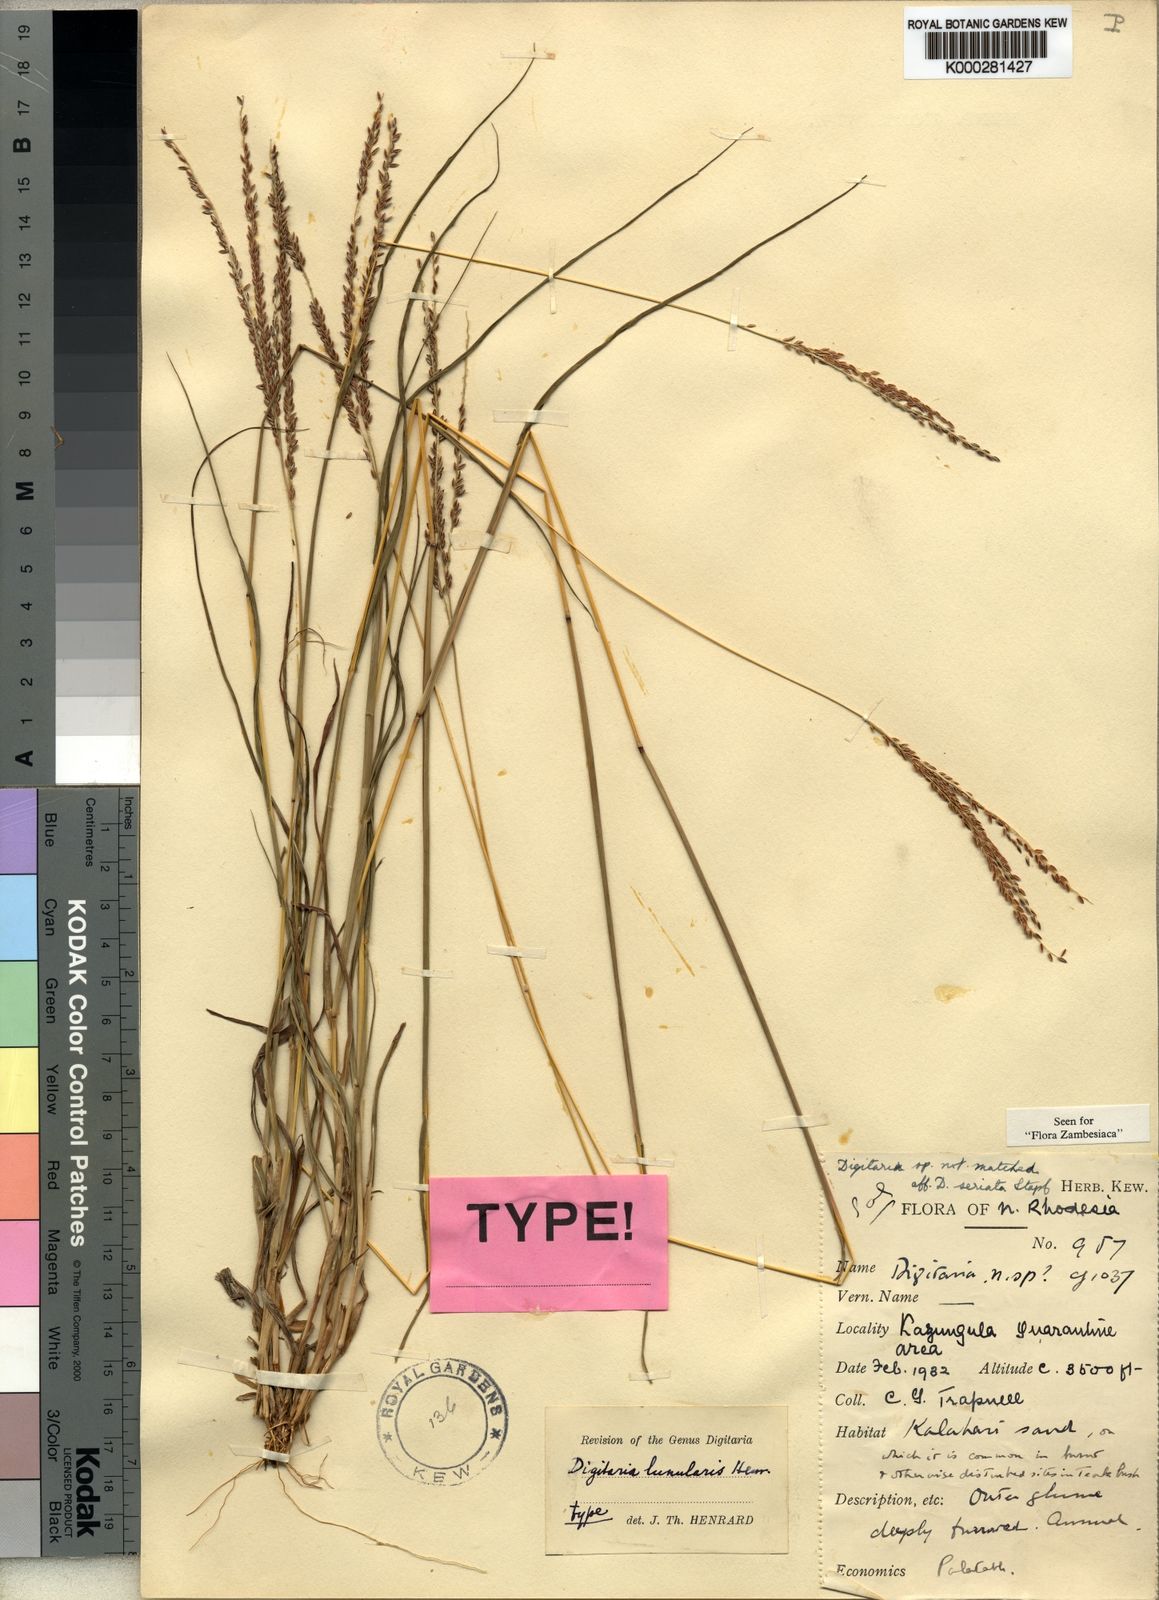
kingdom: Plantae
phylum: Tracheophyta
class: Liliopsida
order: Poales
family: Poaceae
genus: Digitaria
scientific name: Digitaria maitlandii
